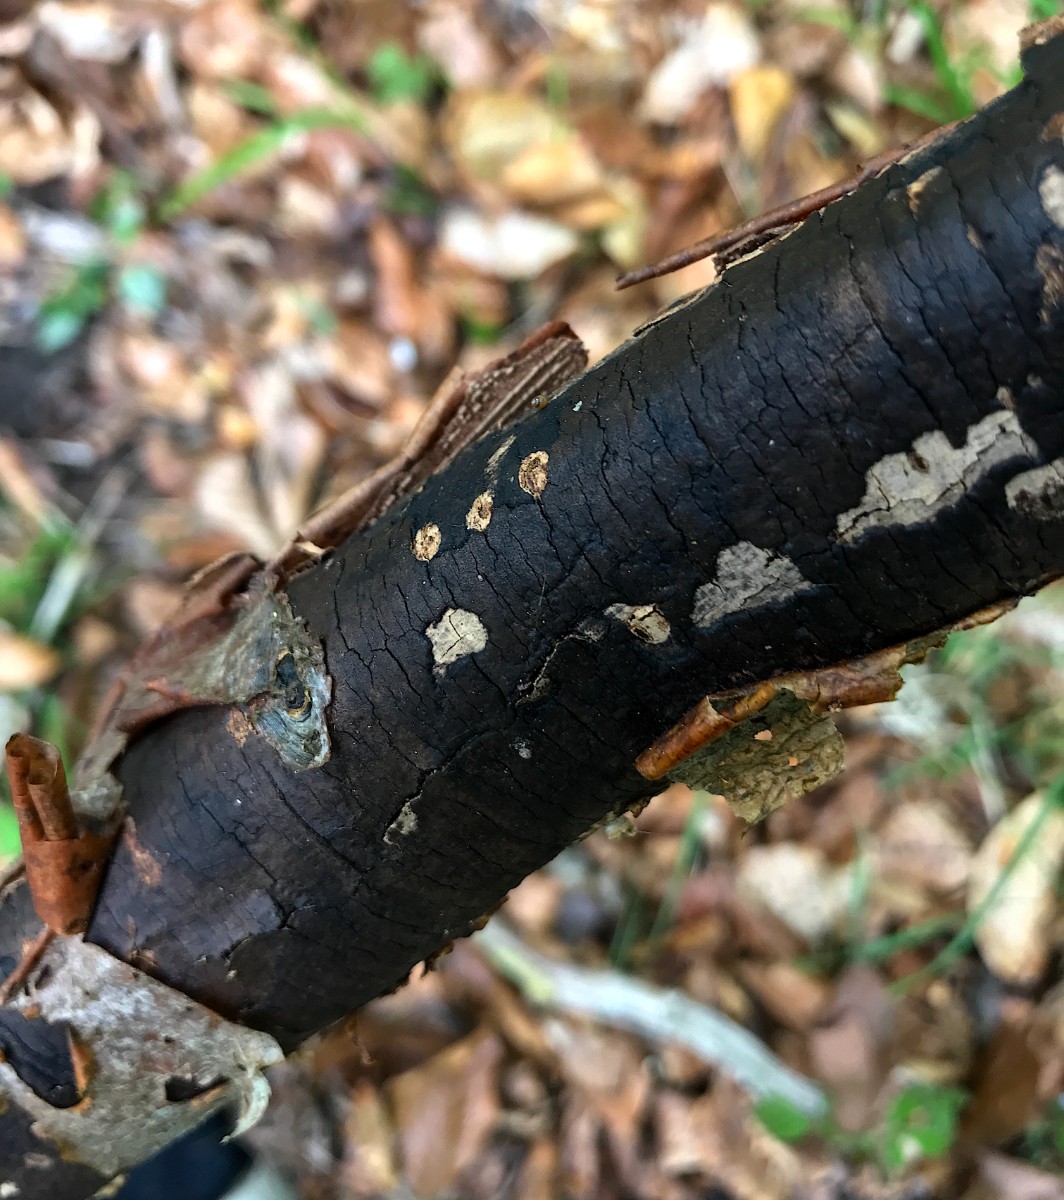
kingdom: Fungi
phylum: Ascomycota
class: Sordariomycetes
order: Xylariales
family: Diatrypaceae
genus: Diatrype
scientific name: Diatrype decorticata
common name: barksprænger-kulskorpe
